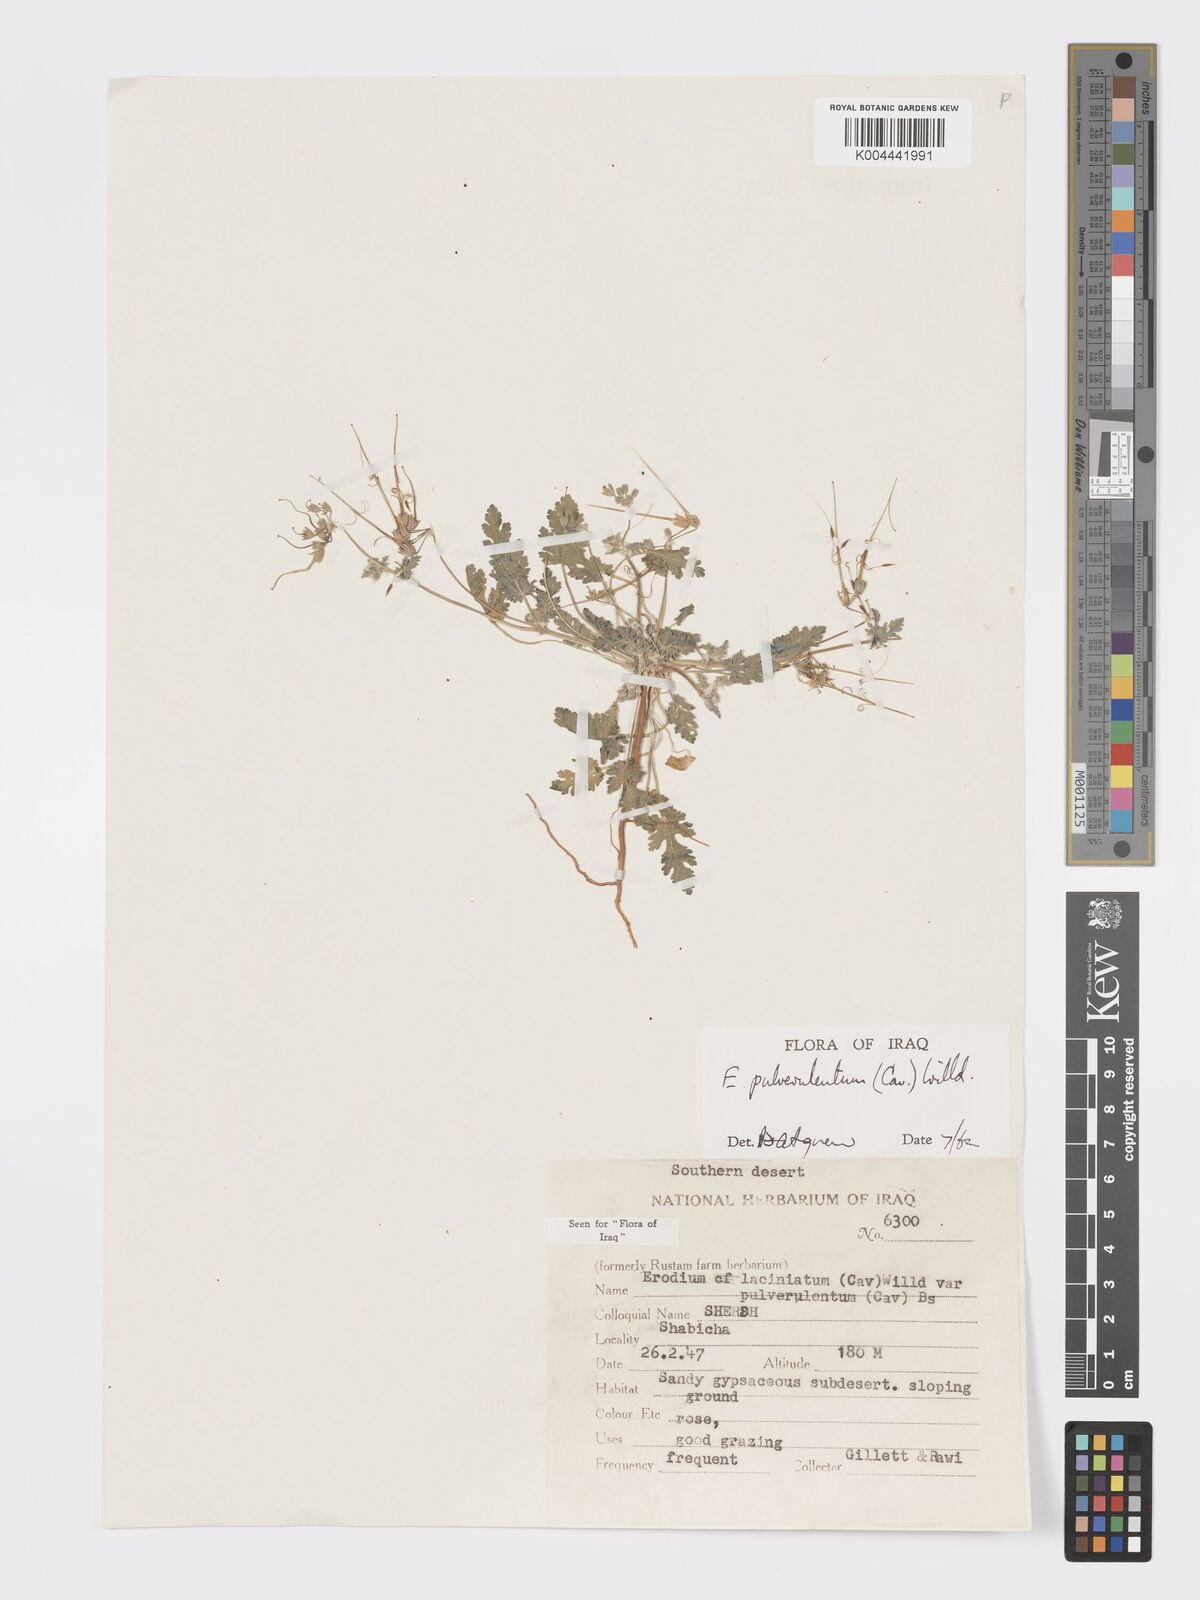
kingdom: Plantae
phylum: Tracheophyta
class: Magnoliopsida
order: Geraniales
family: Geraniaceae
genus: Erodium
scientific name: Erodium laciniatum
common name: Cutleaf stork's bill
